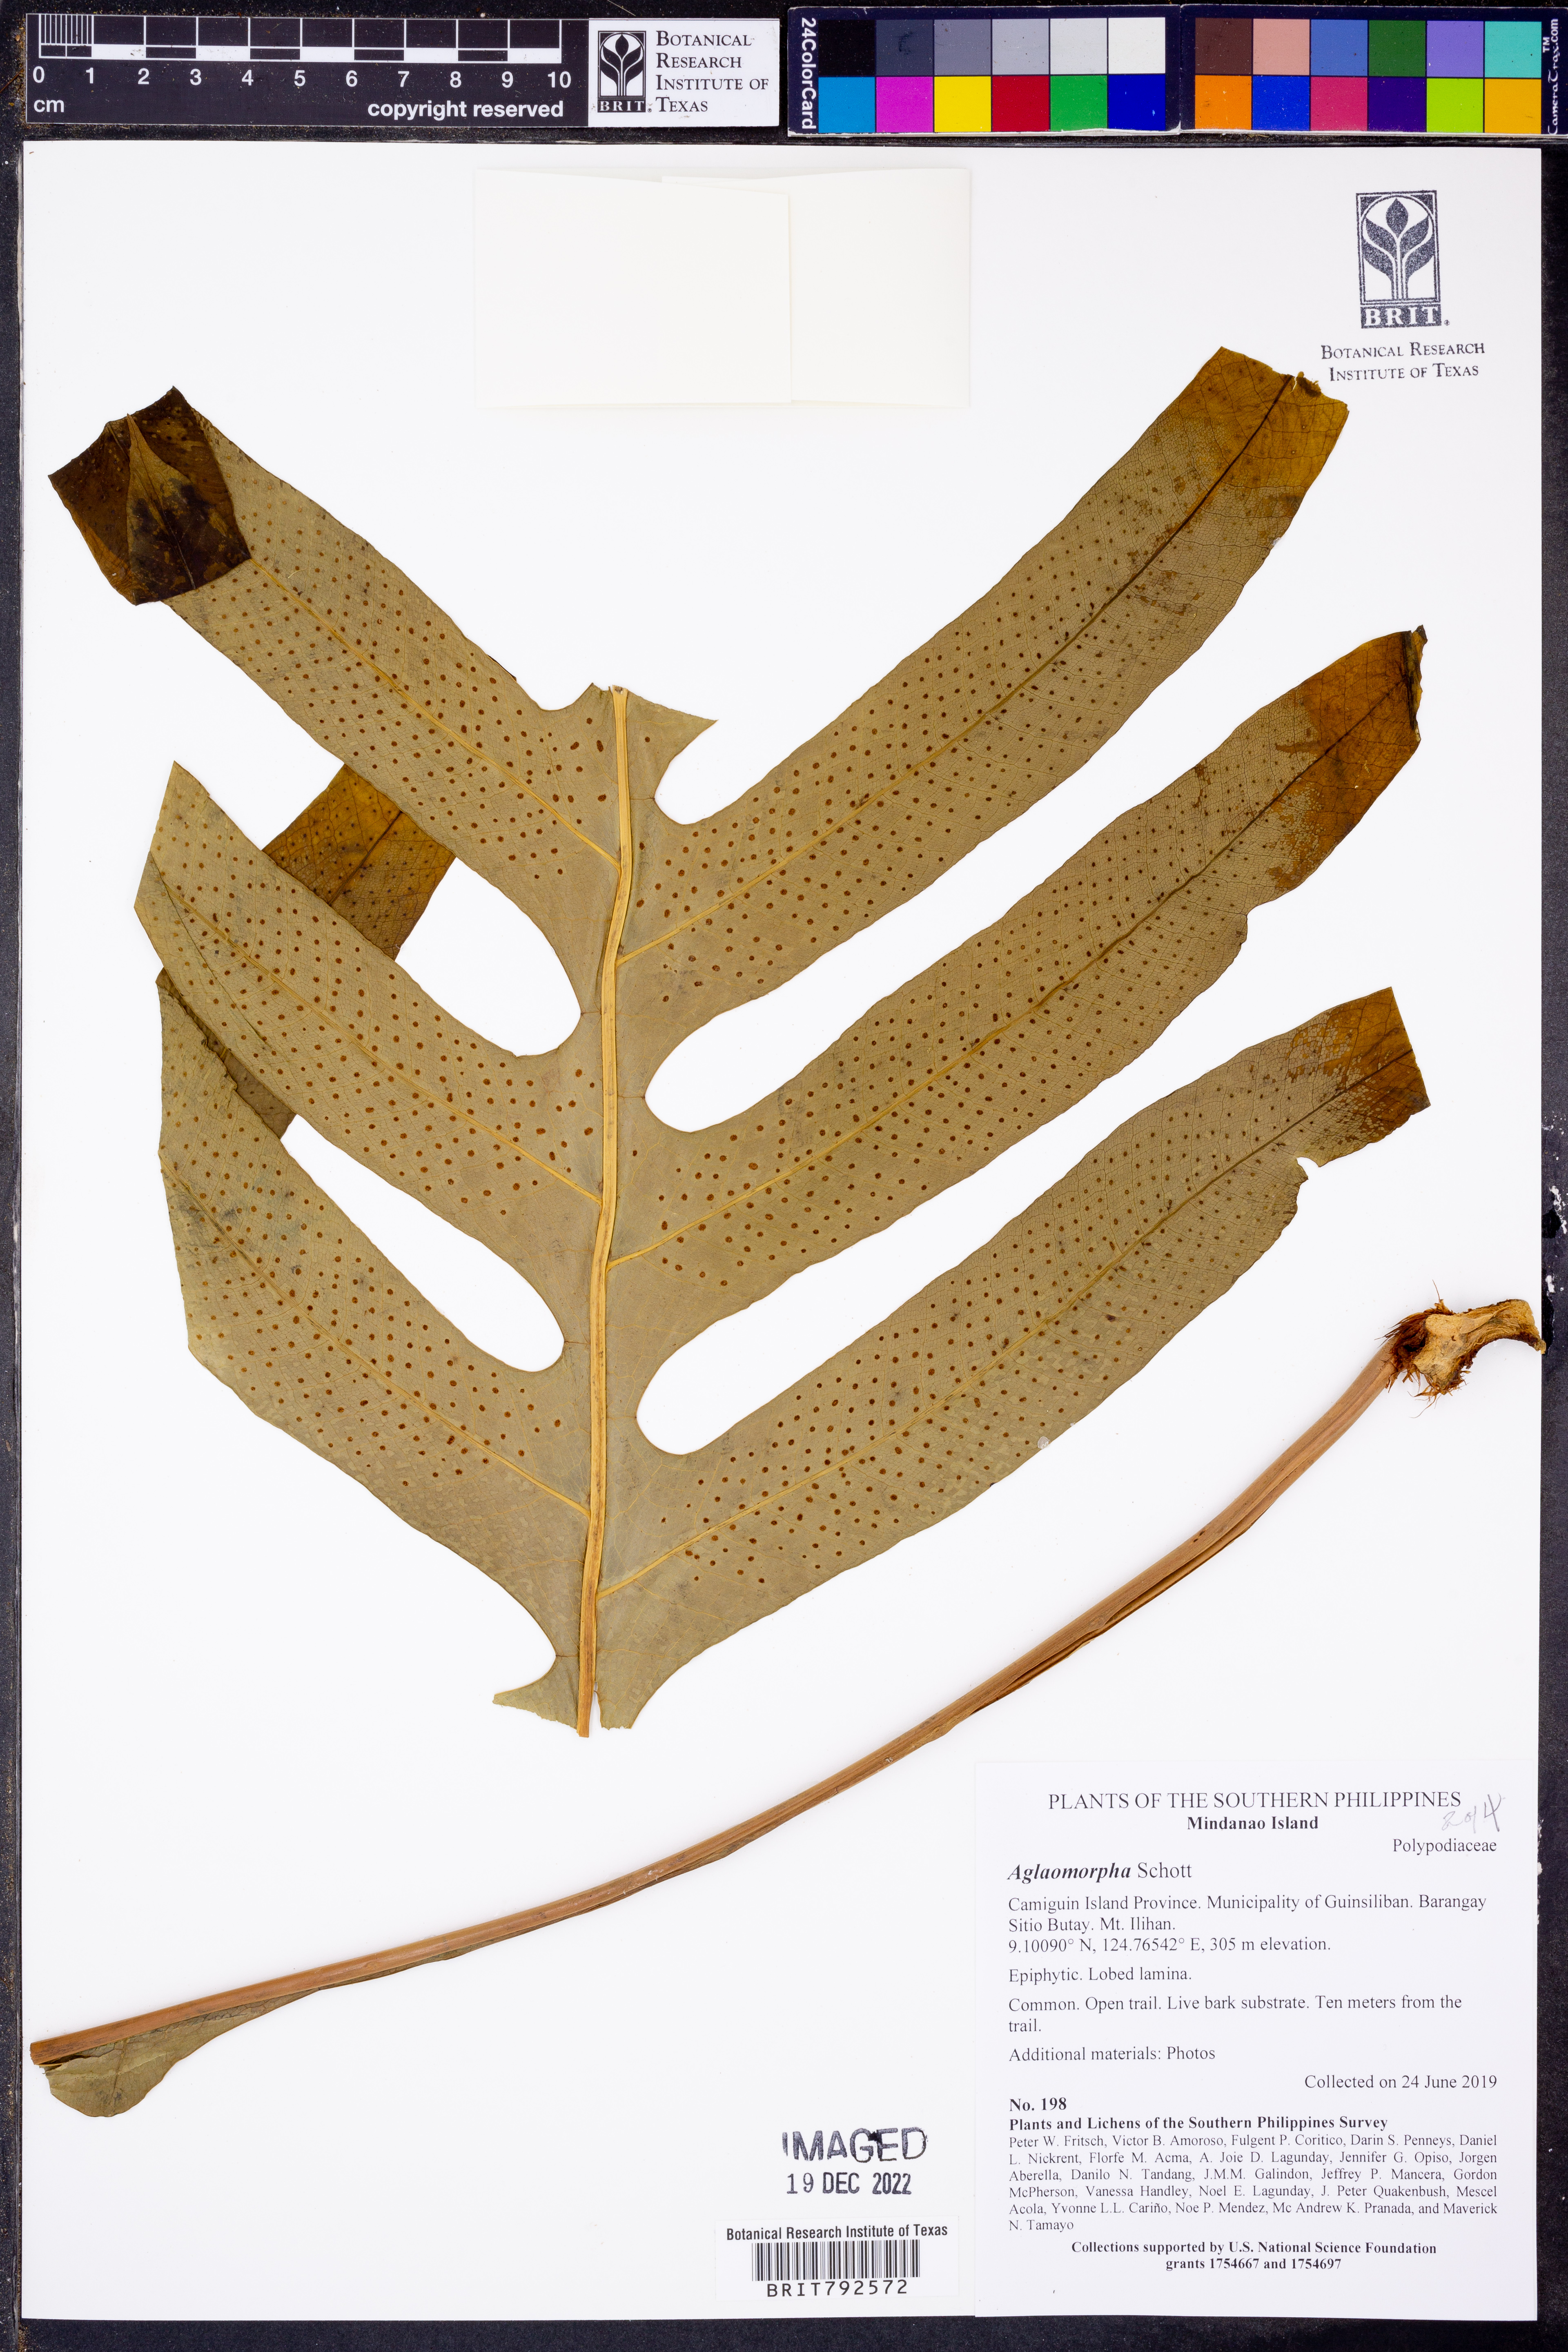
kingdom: Animalia
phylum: Arthropoda
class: Insecta
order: Lepidoptera
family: Erebidae
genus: Aglaomorpha
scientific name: Aglaomorpha
